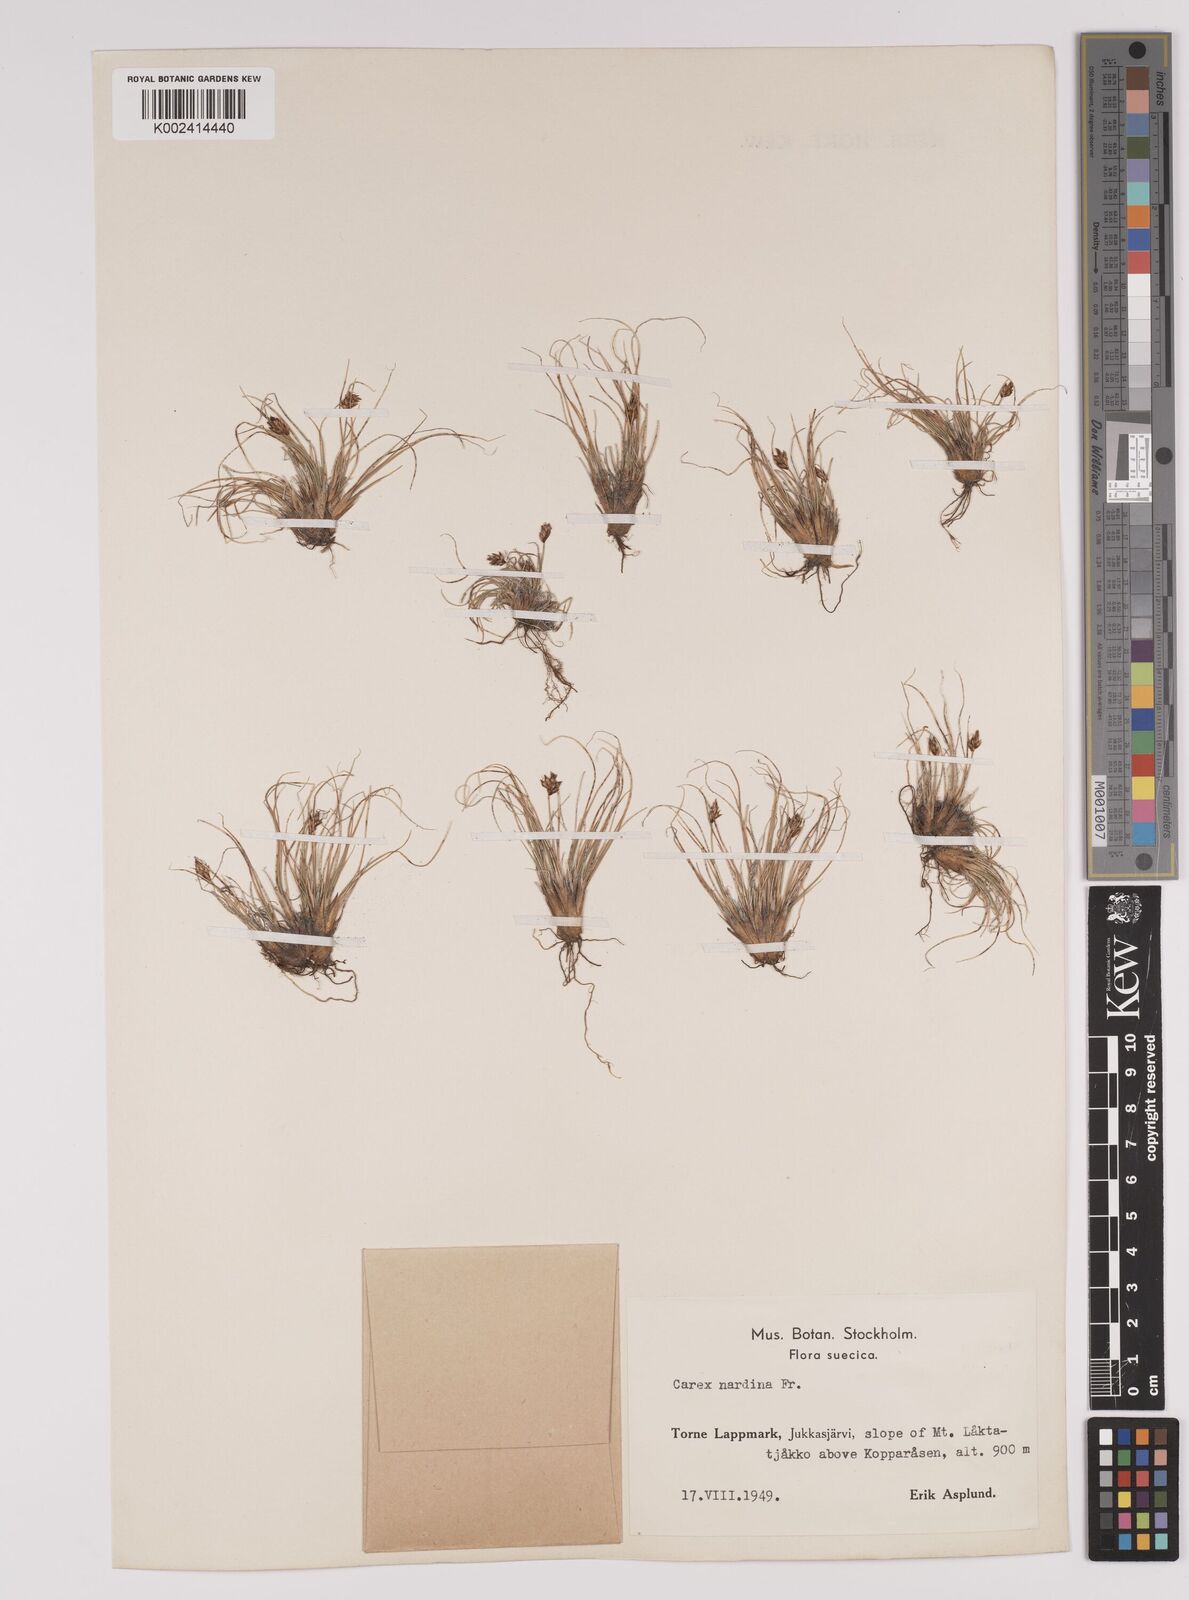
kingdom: Plantae
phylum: Tracheophyta
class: Liliopsida
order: Poales
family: Cyperaceae
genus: Carex
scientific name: Carex nardina
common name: Nard sedge
